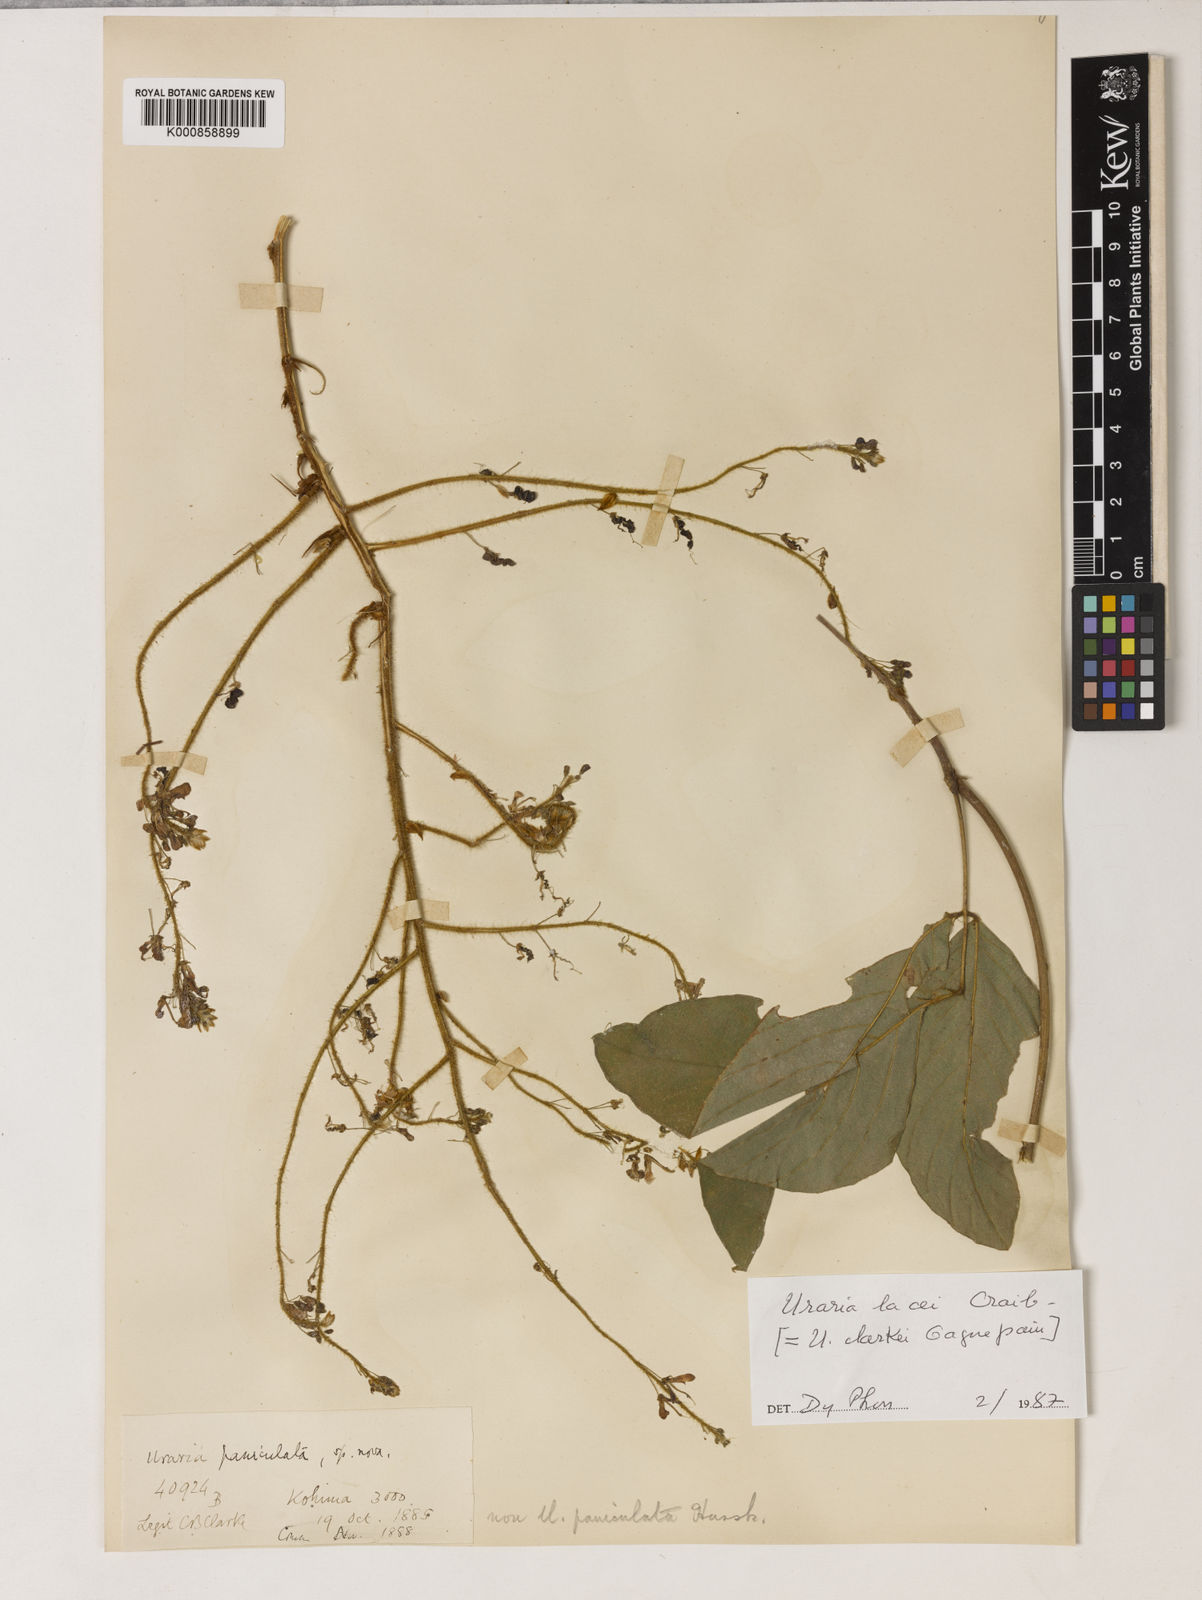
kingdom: Plantae
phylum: Tracheophyta
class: Magnoliopsida
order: Fabales
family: Fabaceae
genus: Uraria
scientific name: Uraria lacei
